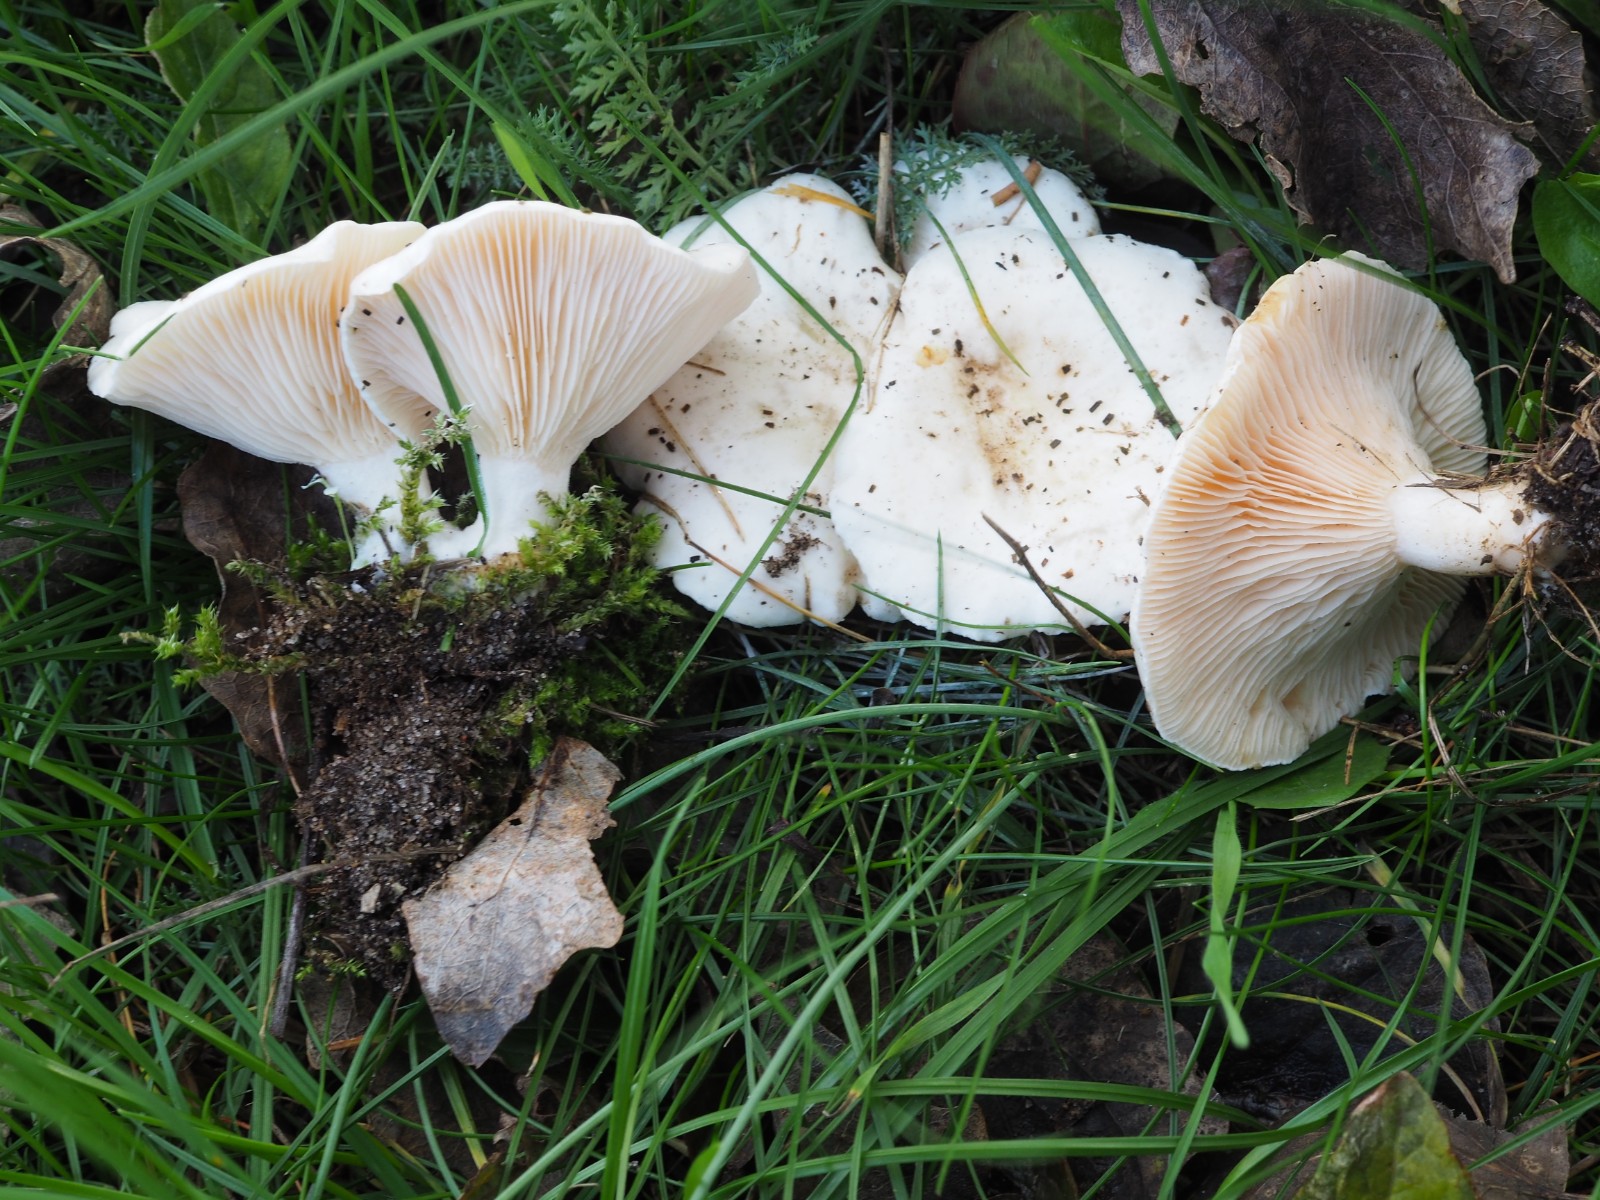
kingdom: Fungi
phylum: Basidiomycota
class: Agaricomycetes
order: Agaricales
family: Tricholomataceae
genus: Lulesia
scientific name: Lulesia
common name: hvid troldhat
